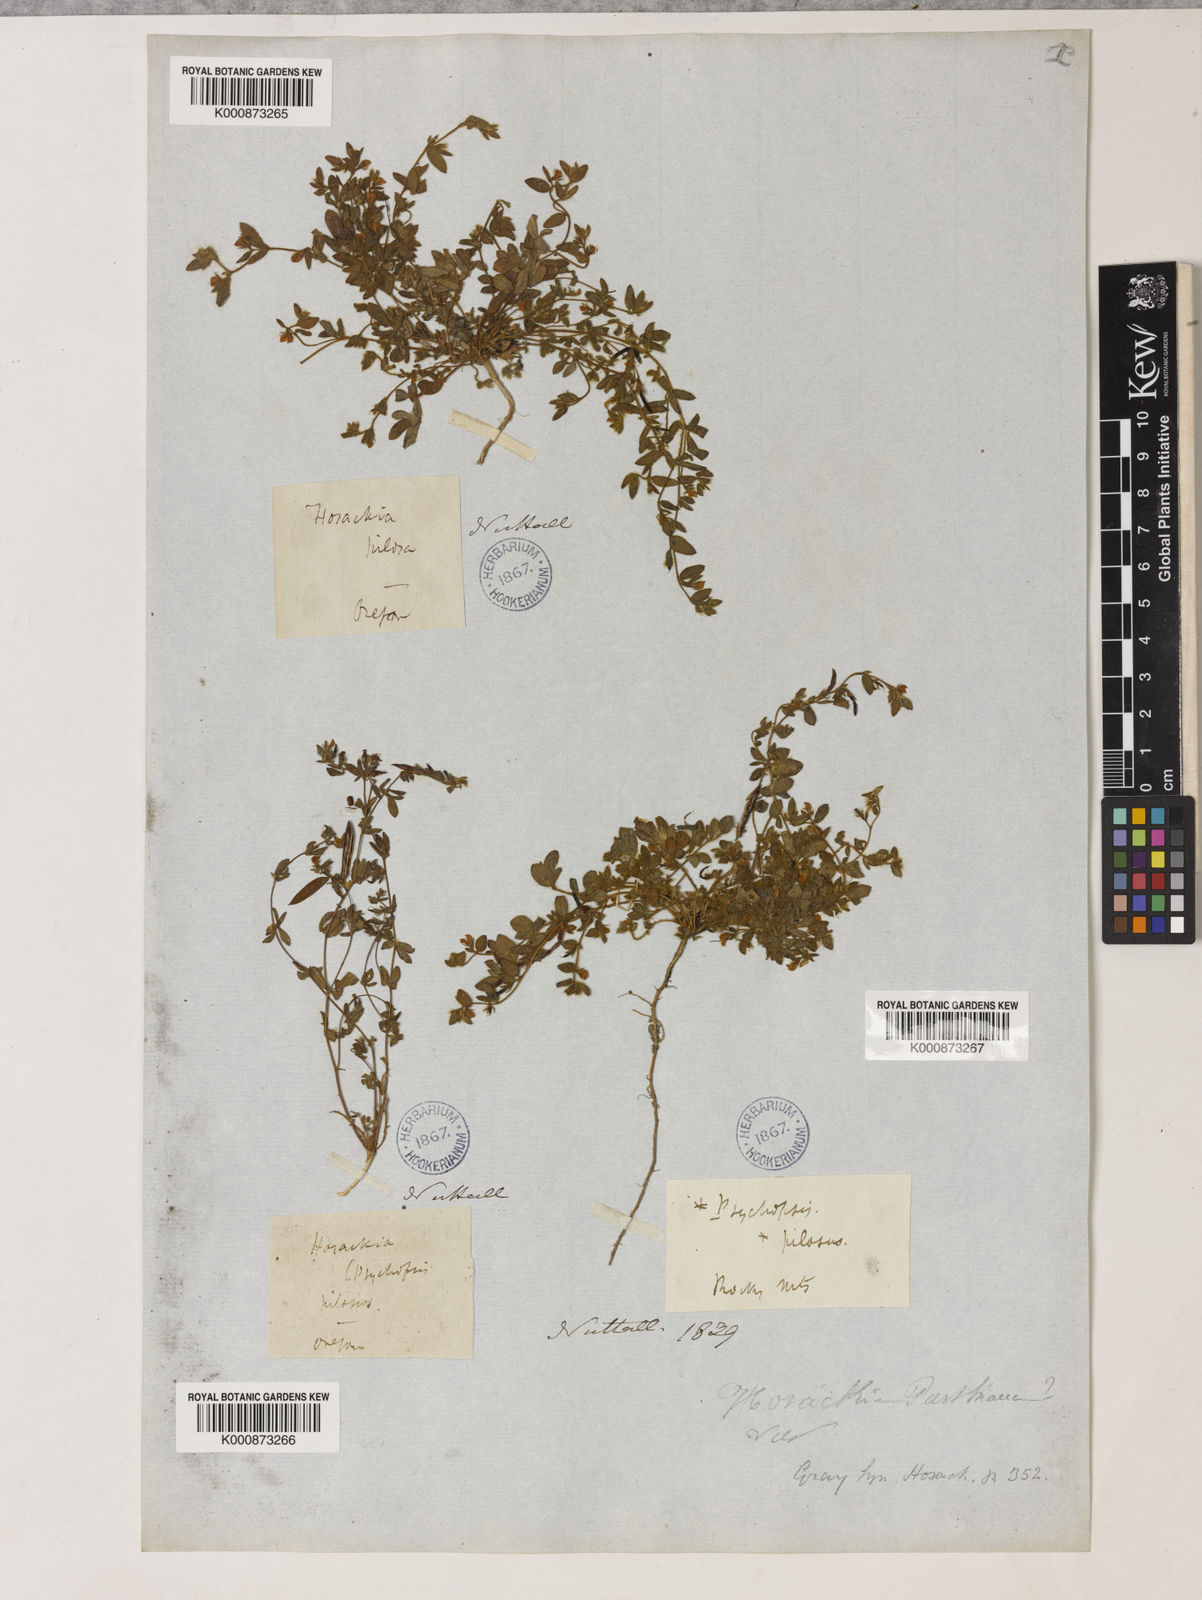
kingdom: Plantae
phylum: Tracheophyta
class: Magnoliopsida
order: Fabales
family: Fabaceae
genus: Collaea
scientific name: Collaea speciosa
